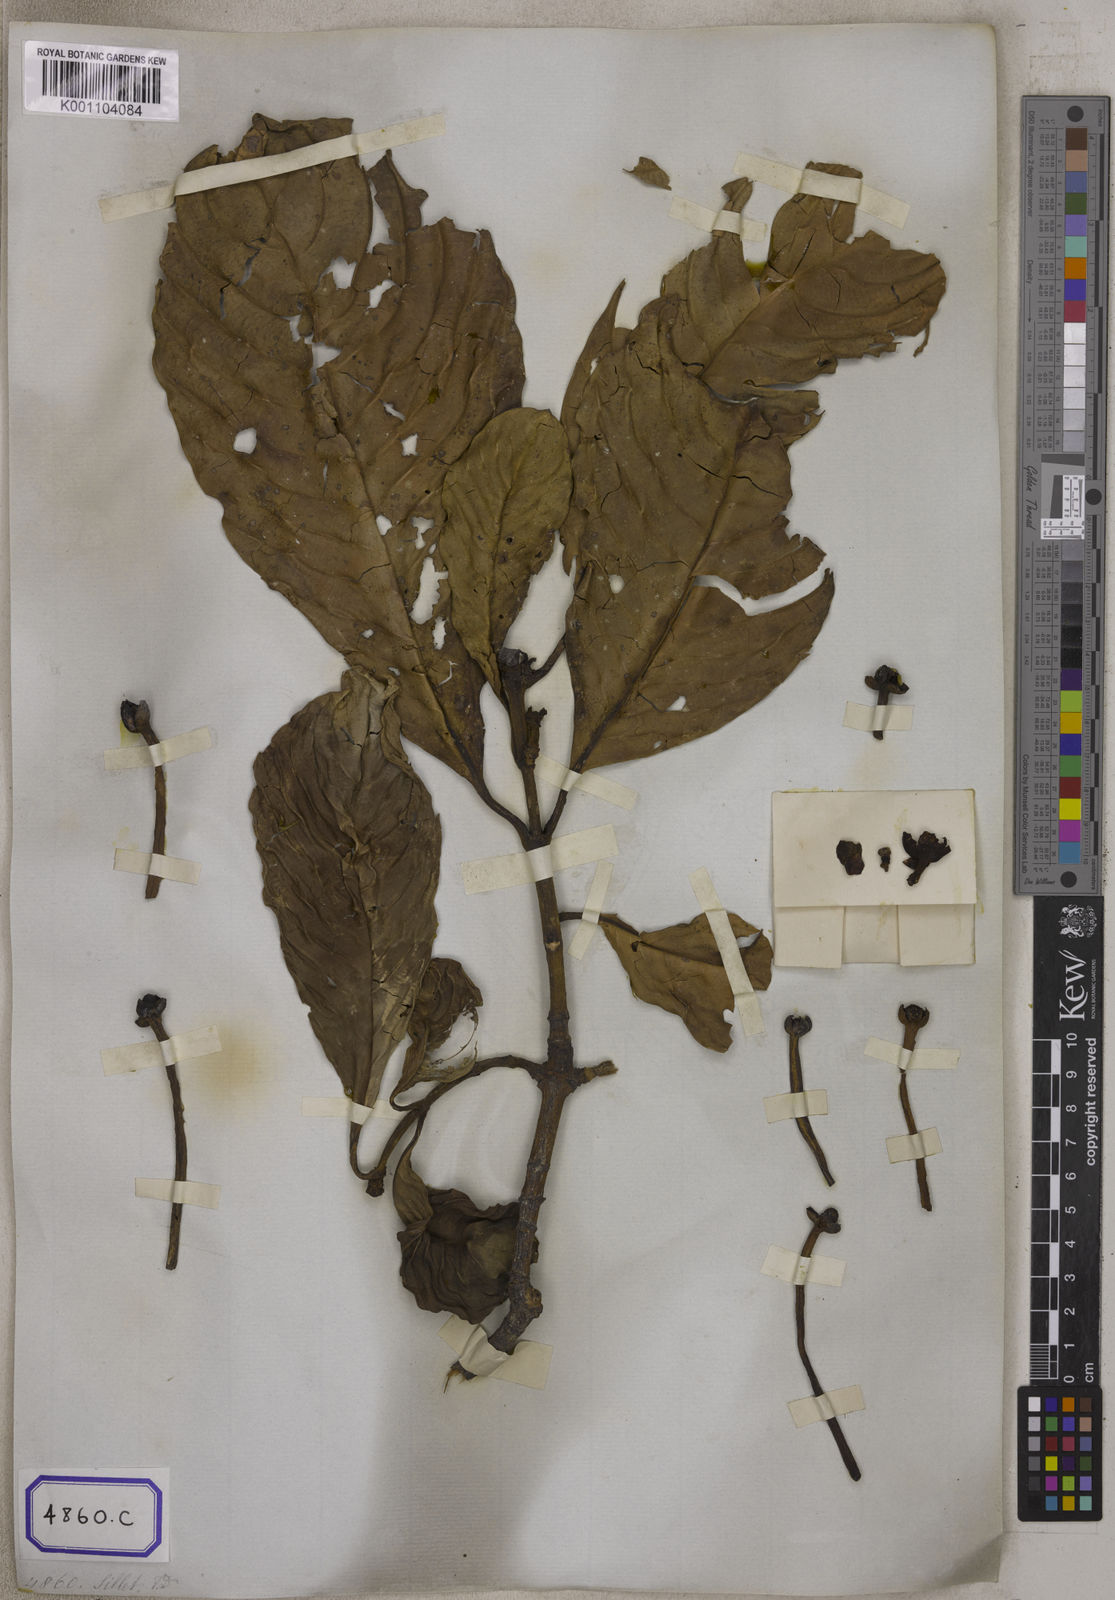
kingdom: Plantae
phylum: Tracheophyta
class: Magnoliopsida
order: Malpighiales
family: Clusiaceae
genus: Garcinia
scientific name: Garcinia
